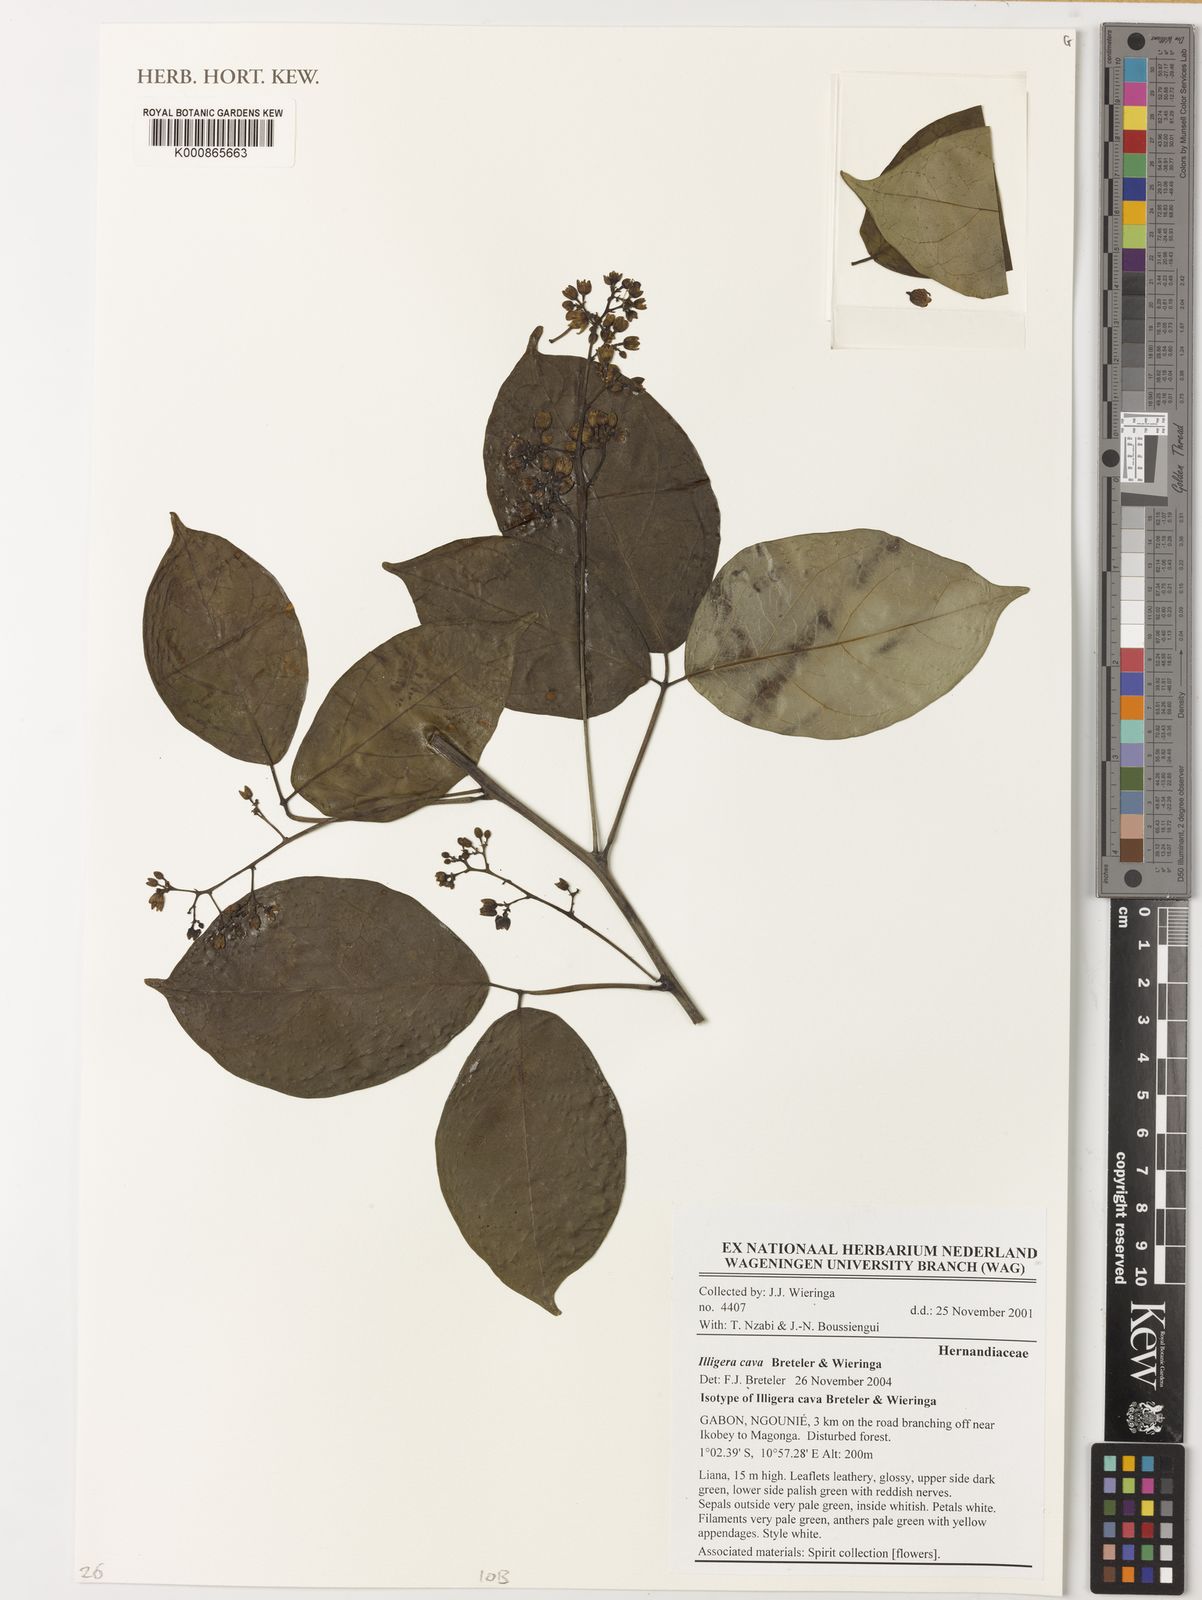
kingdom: Plantae
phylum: Tracheophyta
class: Magnoliopsida
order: Laurales
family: Hernandiaceae
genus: Illigera
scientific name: Illigera cava
